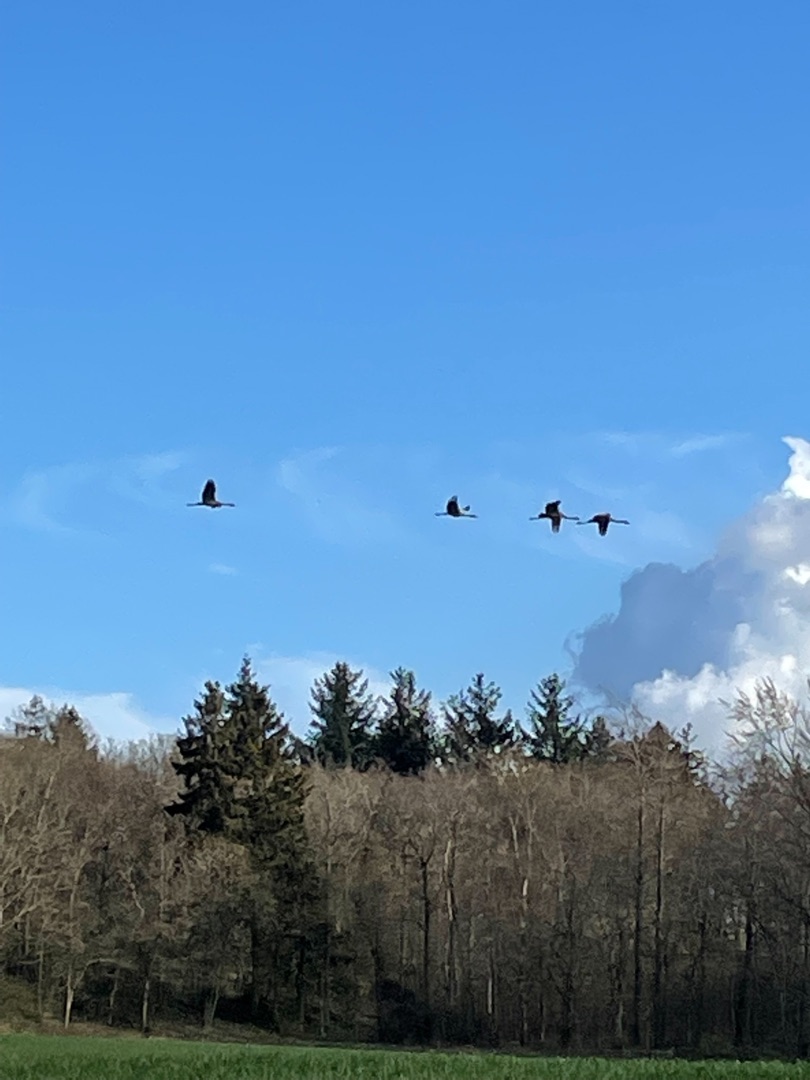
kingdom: Animalia
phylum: Chordata
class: Aves
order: Gruiformes
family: Gruidae
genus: Grus
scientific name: Grus grus
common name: Trane
